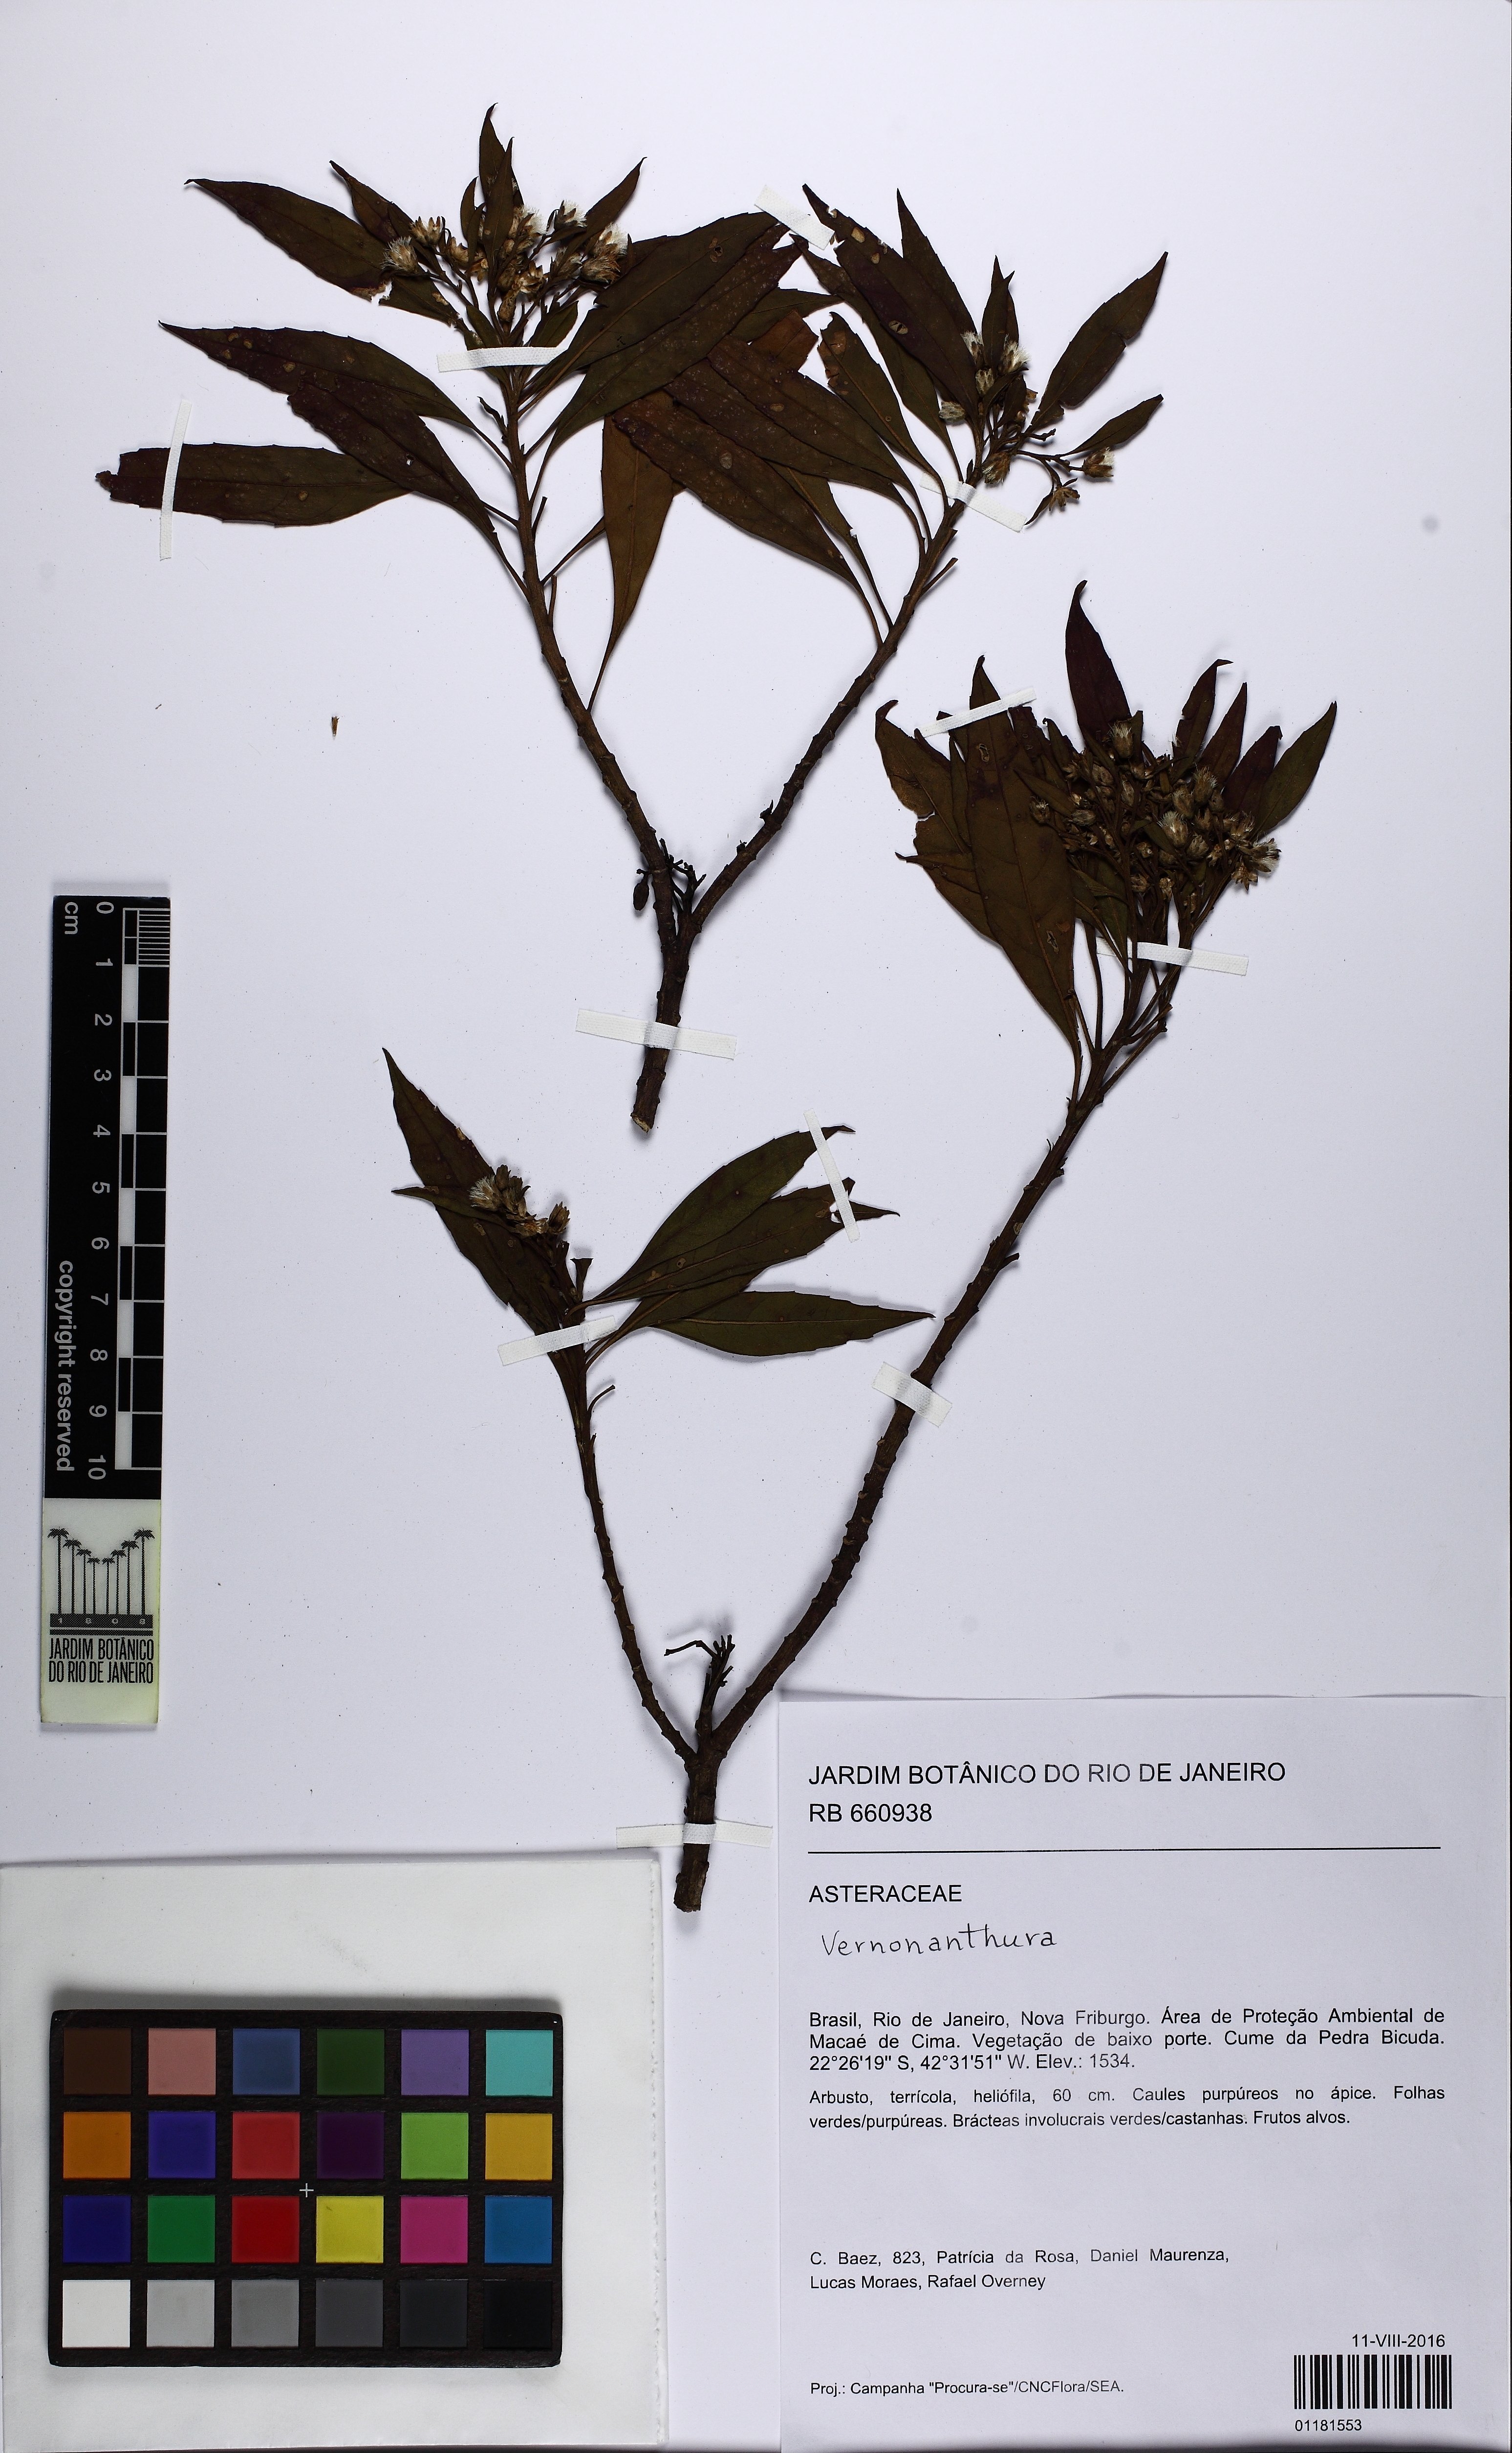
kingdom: Plantae
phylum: Tracheophyta
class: Magnoliopsida
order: Asterales
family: Asteraceae
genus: Vernonanthura
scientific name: Vernonanthura
